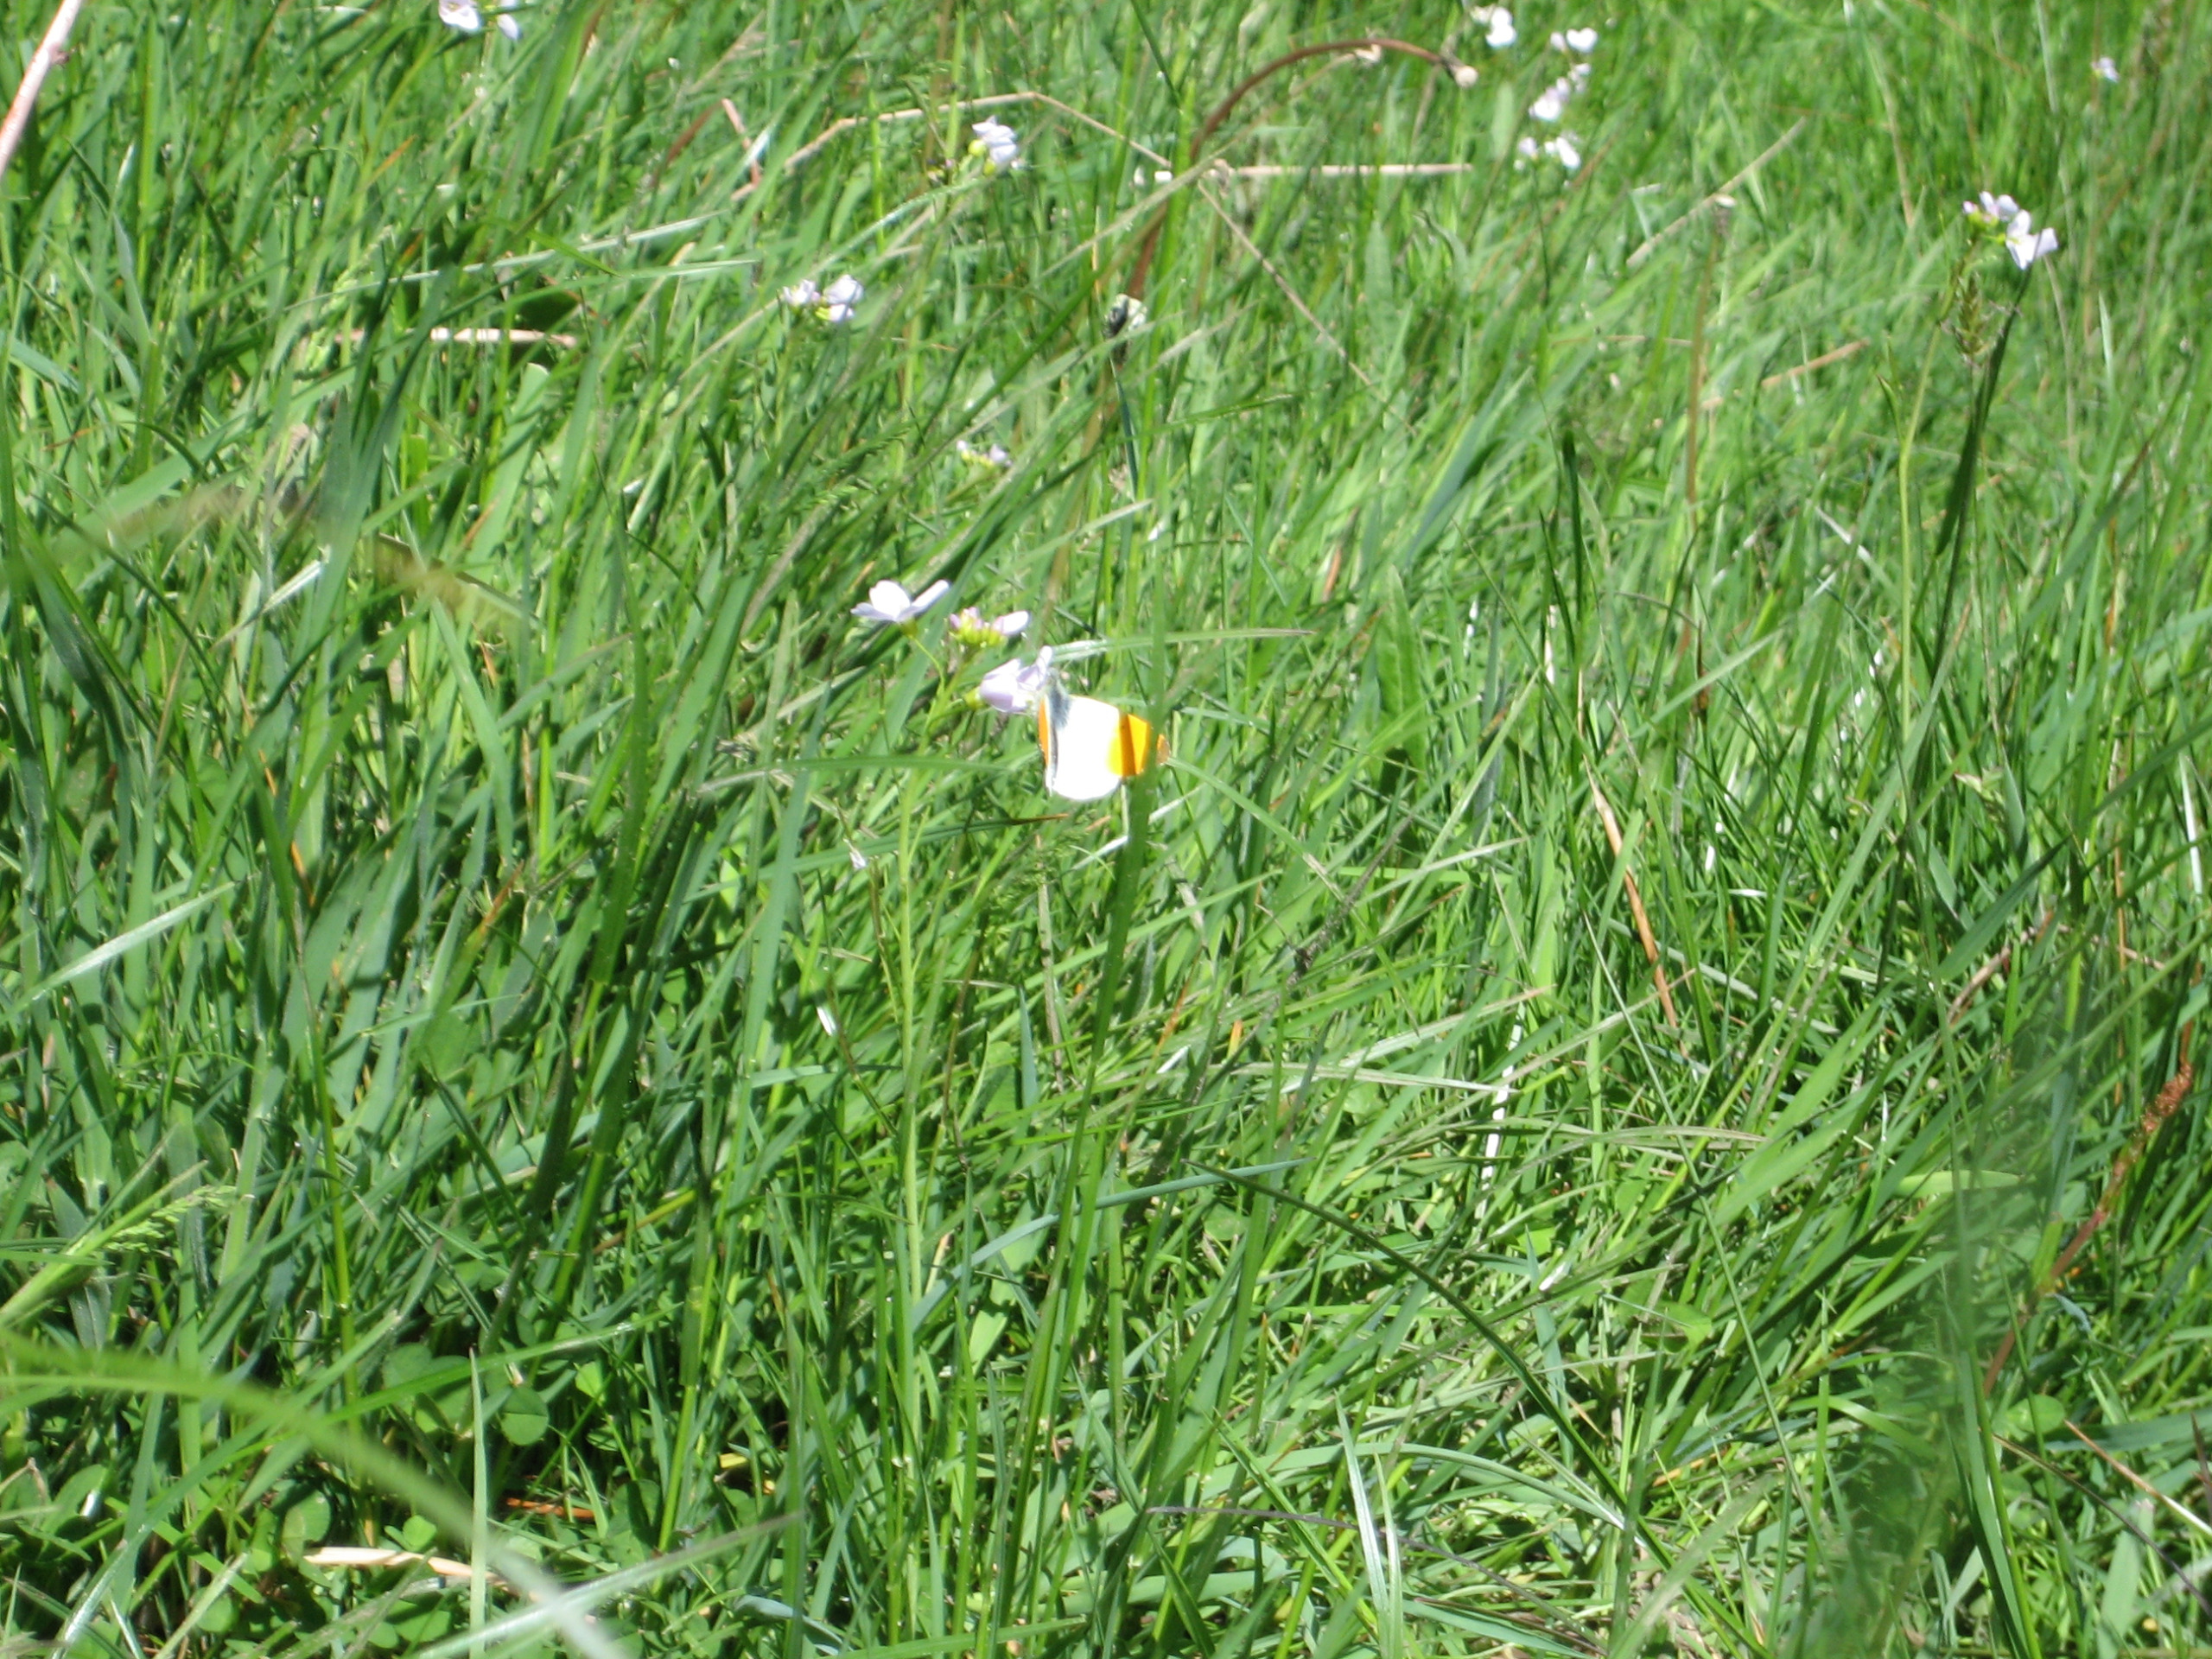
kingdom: Animalia
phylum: Arthropoda
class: Insecta
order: Lepidoptera
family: Pieridae
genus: Anthocharis
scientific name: Anthocharis cardamines
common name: Aurora
